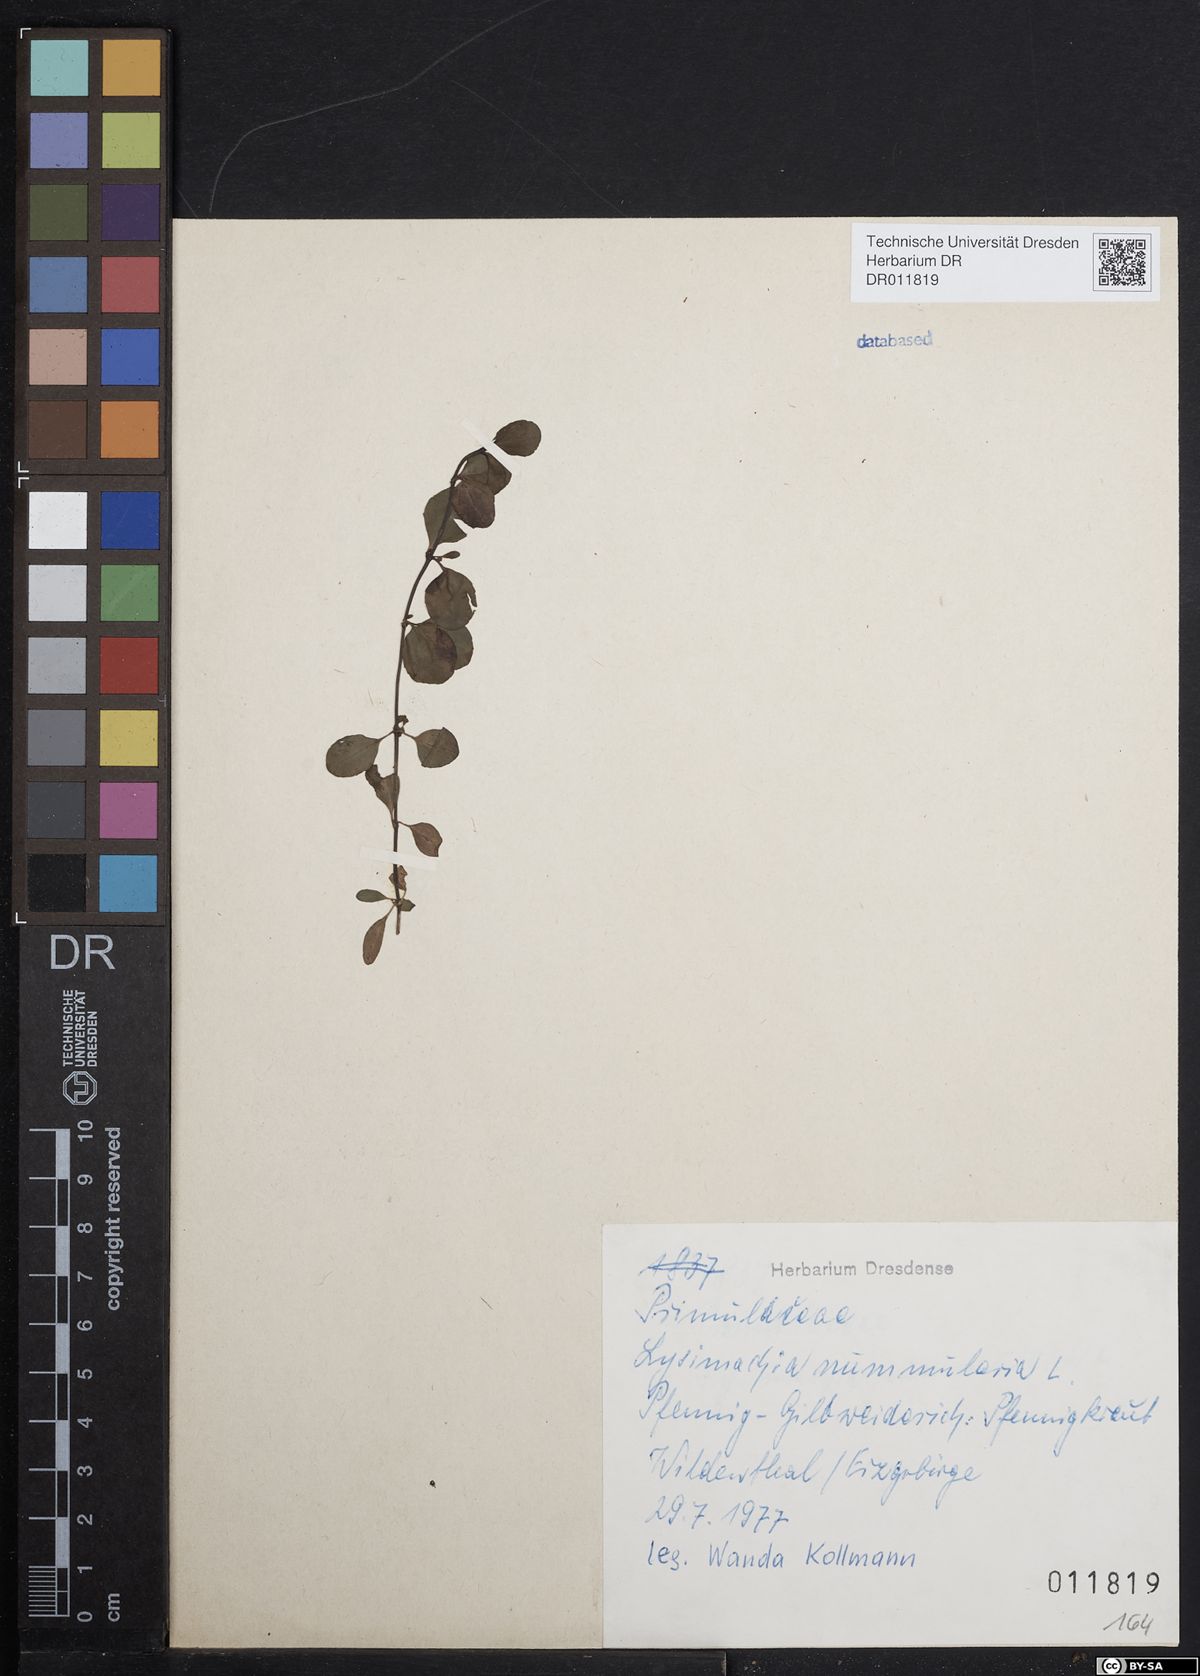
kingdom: Plantae
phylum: Tracheophyta
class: Magnoliopsida
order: Ericales
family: Primulaceae
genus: Lysimachia
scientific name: Lysimachia nummularia
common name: Moneywort
